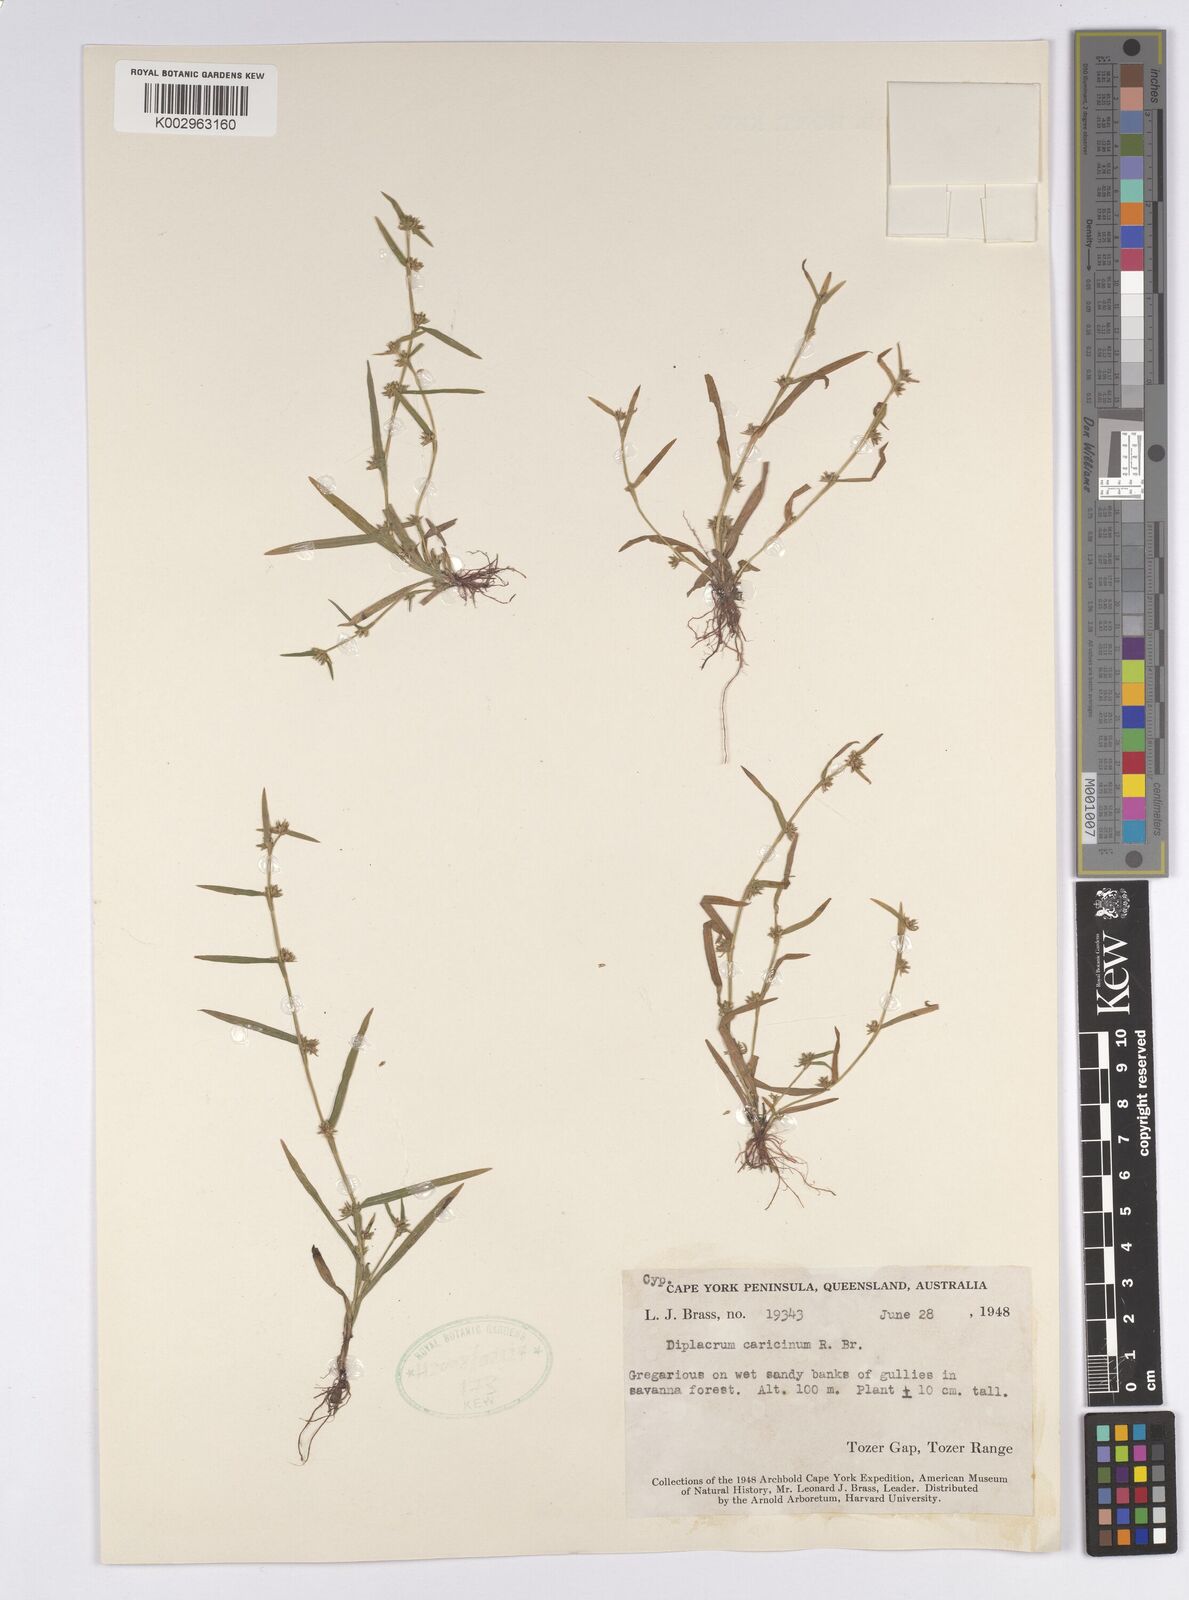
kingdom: Plantae
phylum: Tracheophyta
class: Liliopsida
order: Poales
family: Cyperaceae
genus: Diplacrum
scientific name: Diplacrum caricinum
